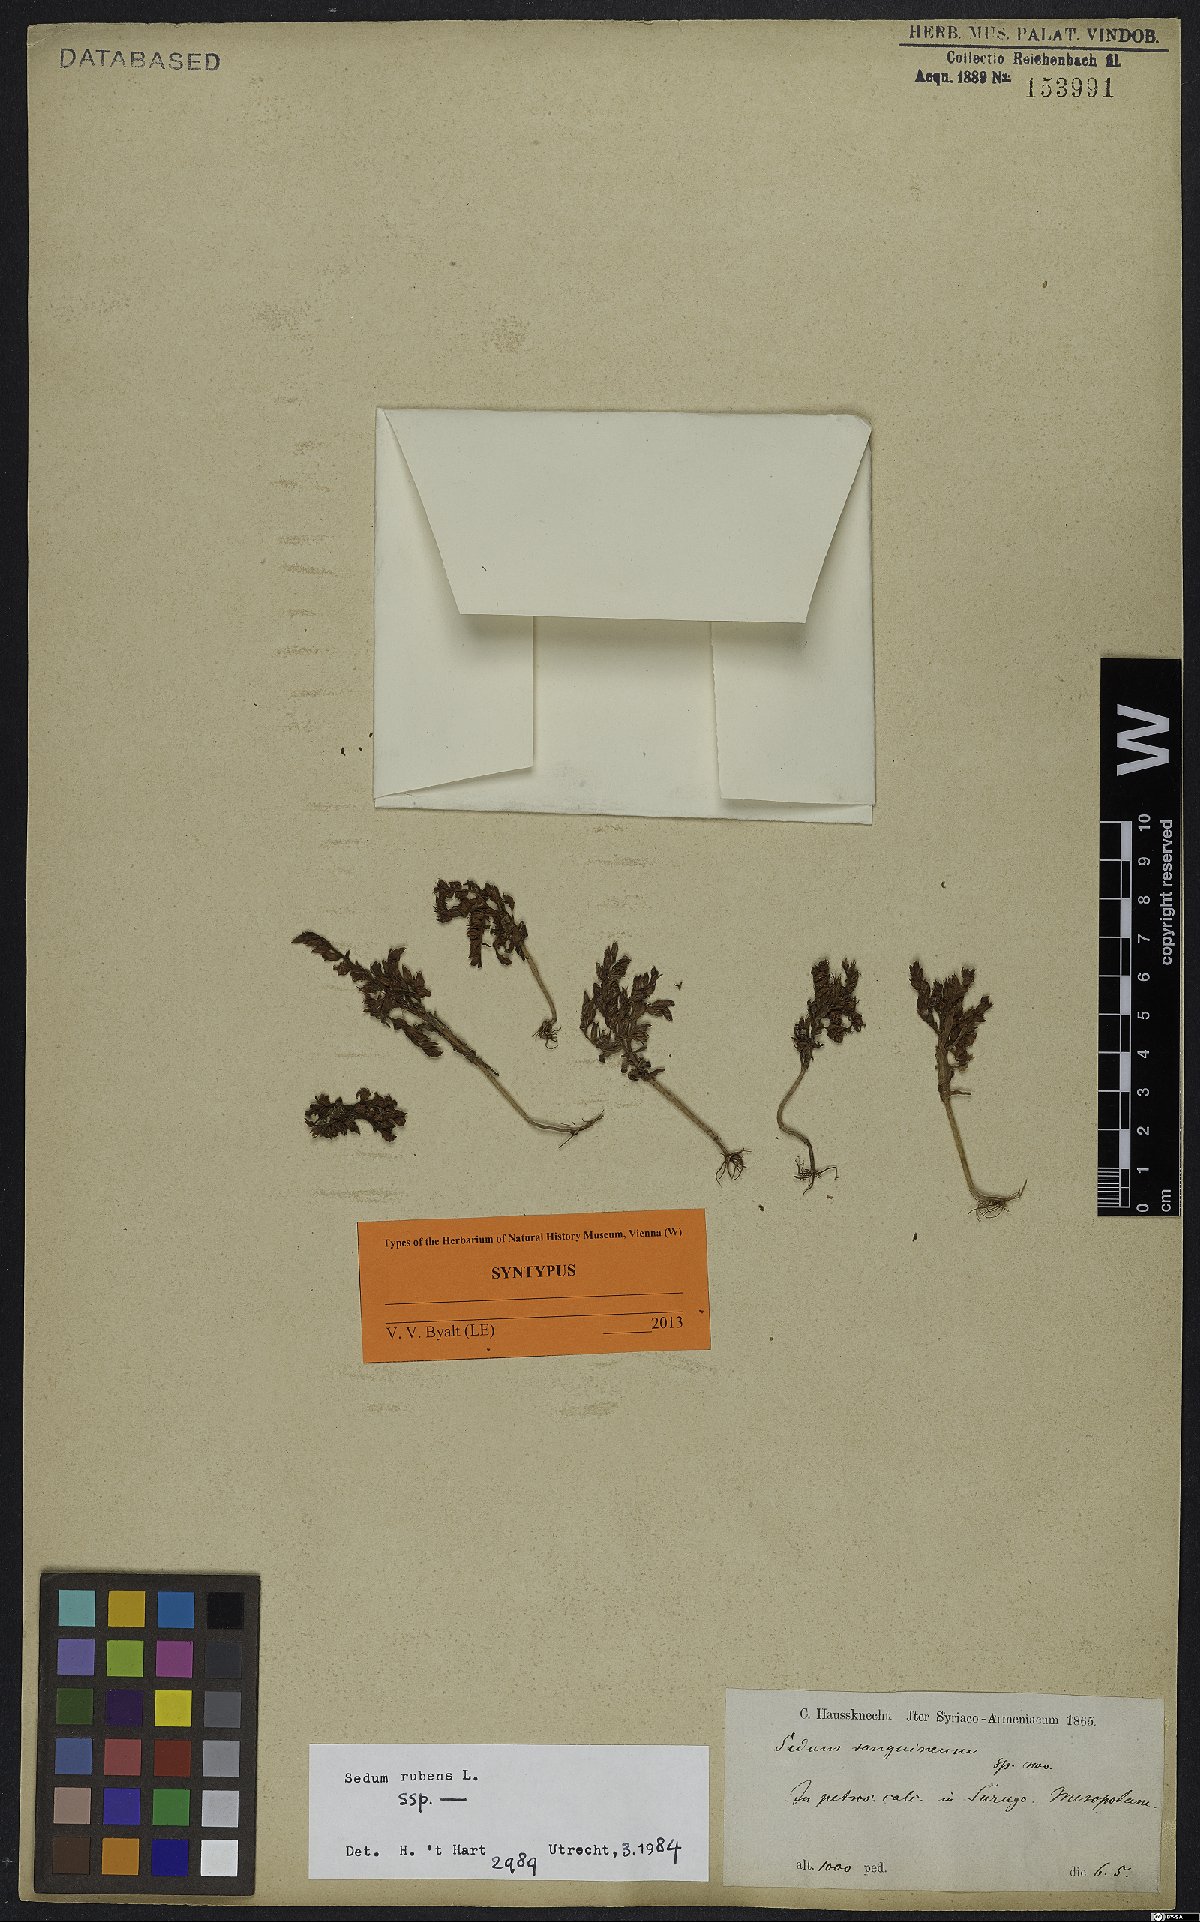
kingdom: Plantae
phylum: Tracheophyta
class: Magnoliopsida
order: Saxifragales
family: Crassulaceae
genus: Sedum
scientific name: Sedum rubens
